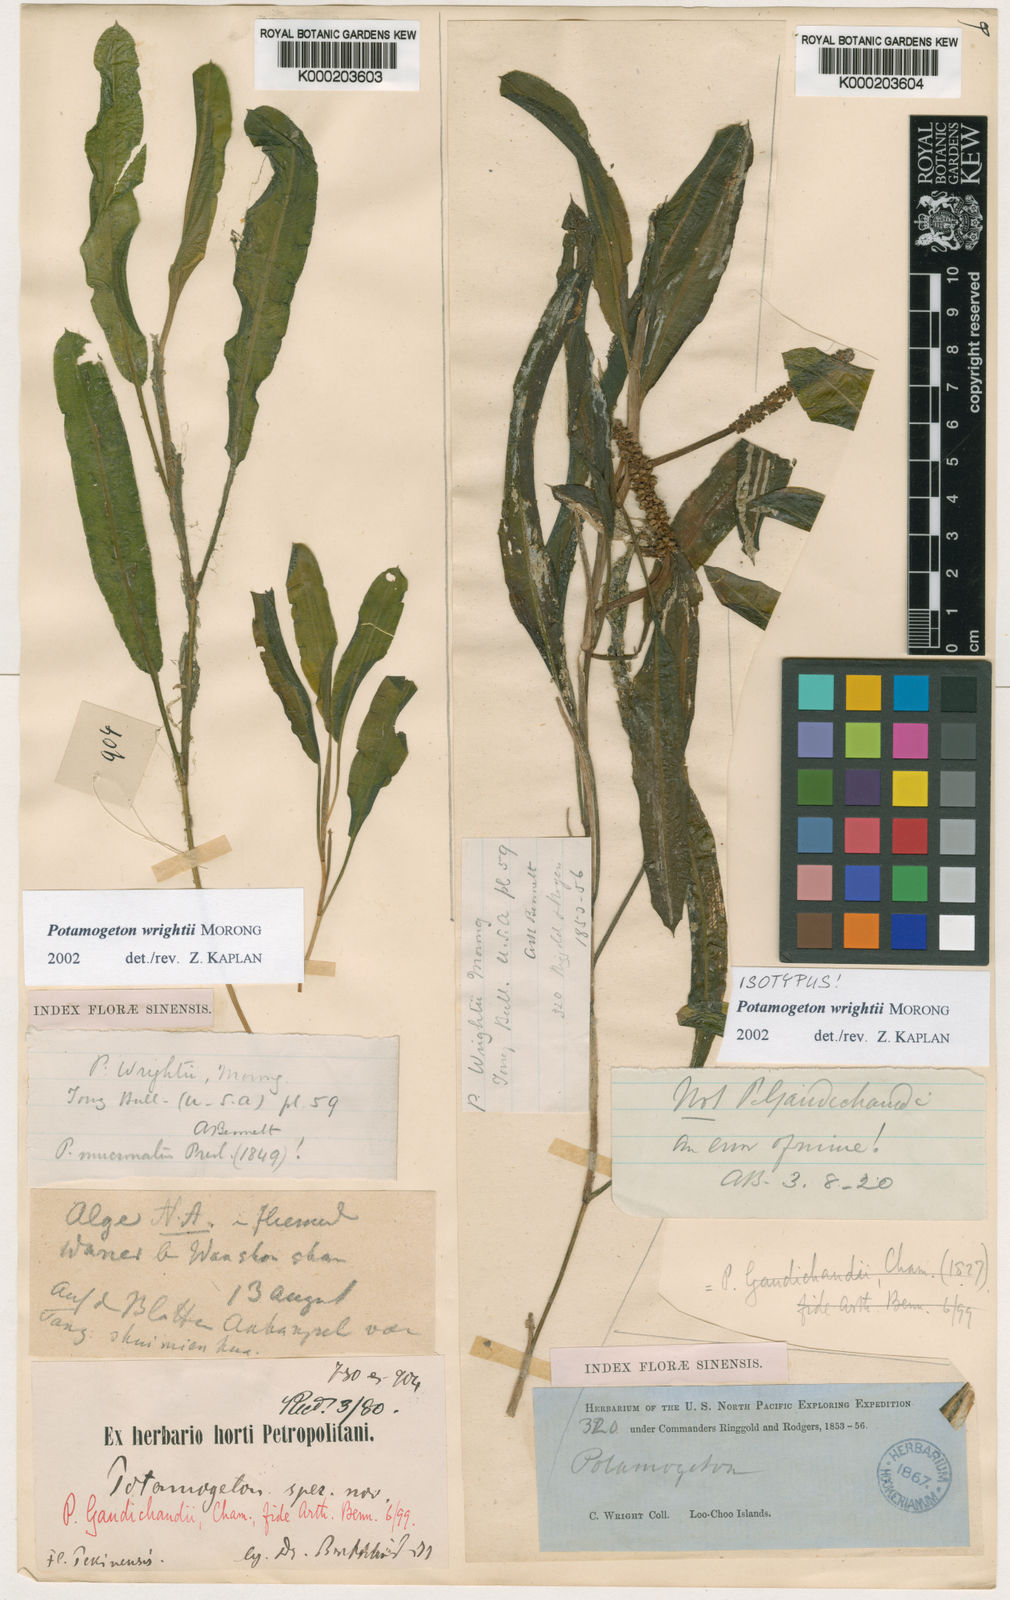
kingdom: Plantae
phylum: Tracheophyta
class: Liliopsida
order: Alismatales
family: Potamogetonaceae
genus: Potamogeton
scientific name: Potamogeton wrightii
